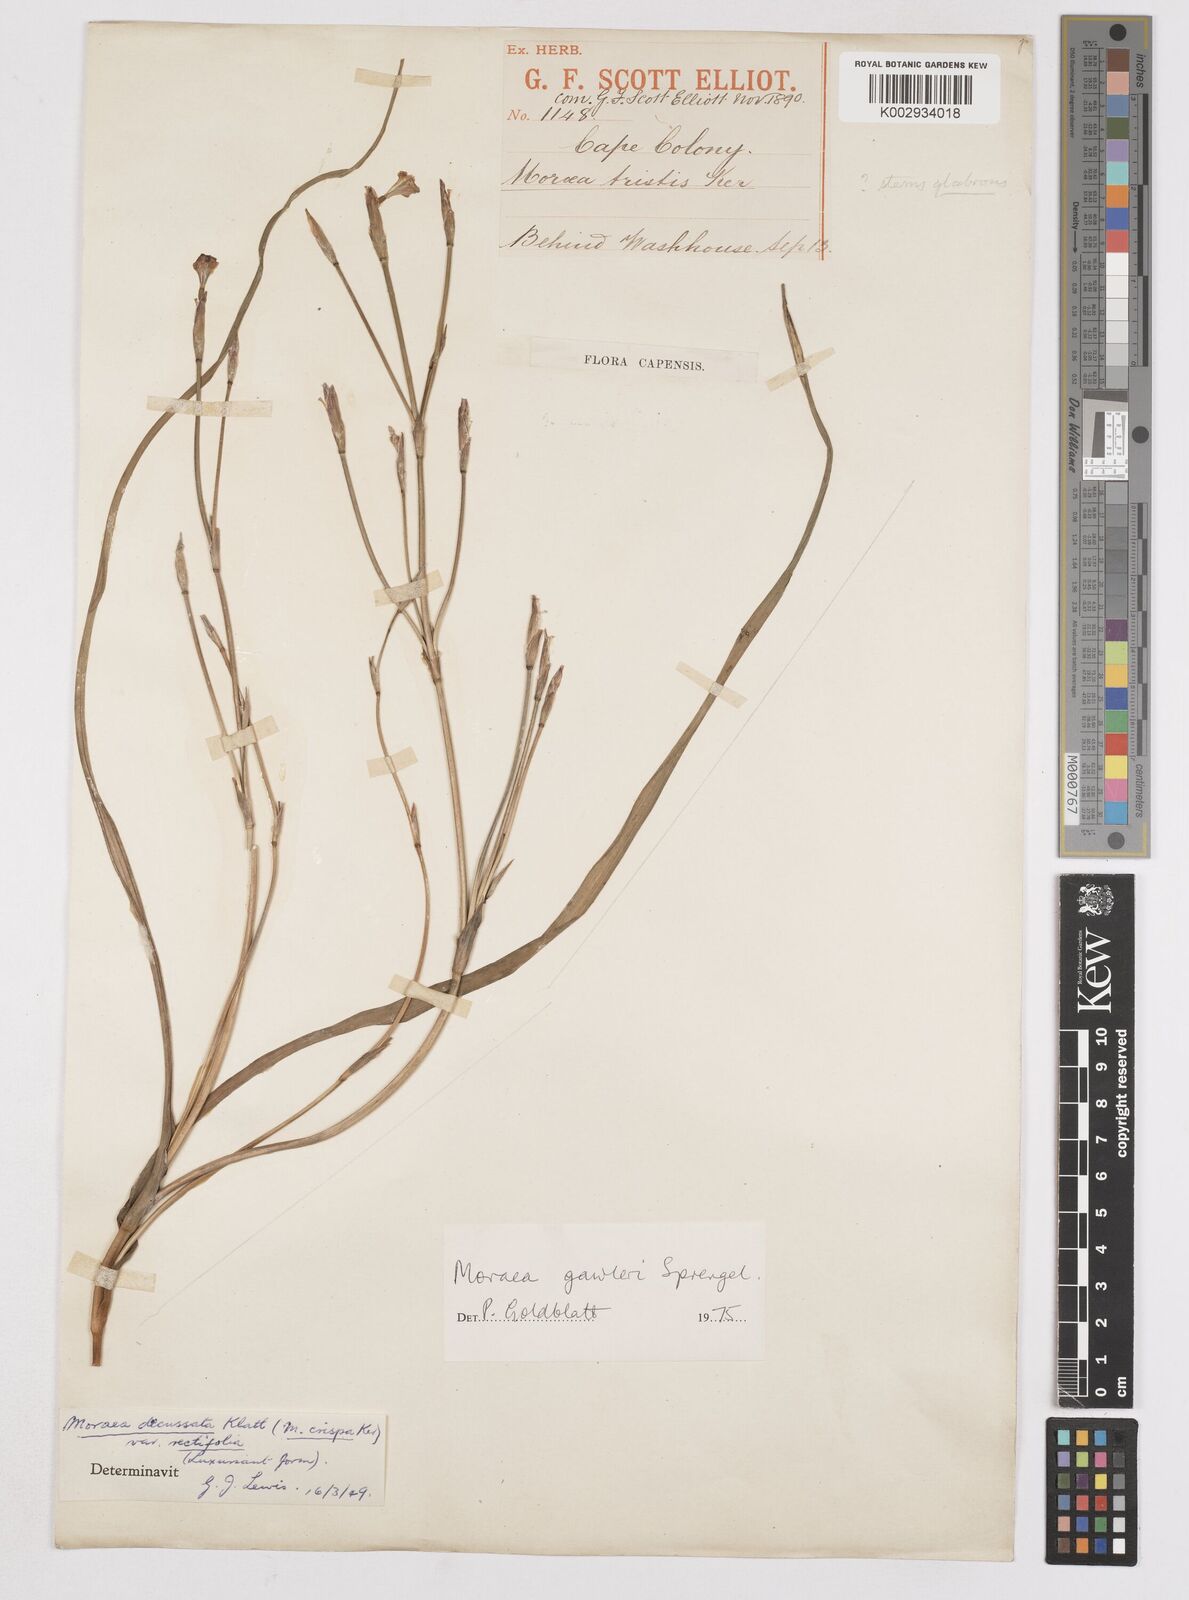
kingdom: Plantae
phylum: Tracheophyta
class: Liliopsida
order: Asparagales
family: Iridaceae
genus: Moraea
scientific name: Moraea gawleri
